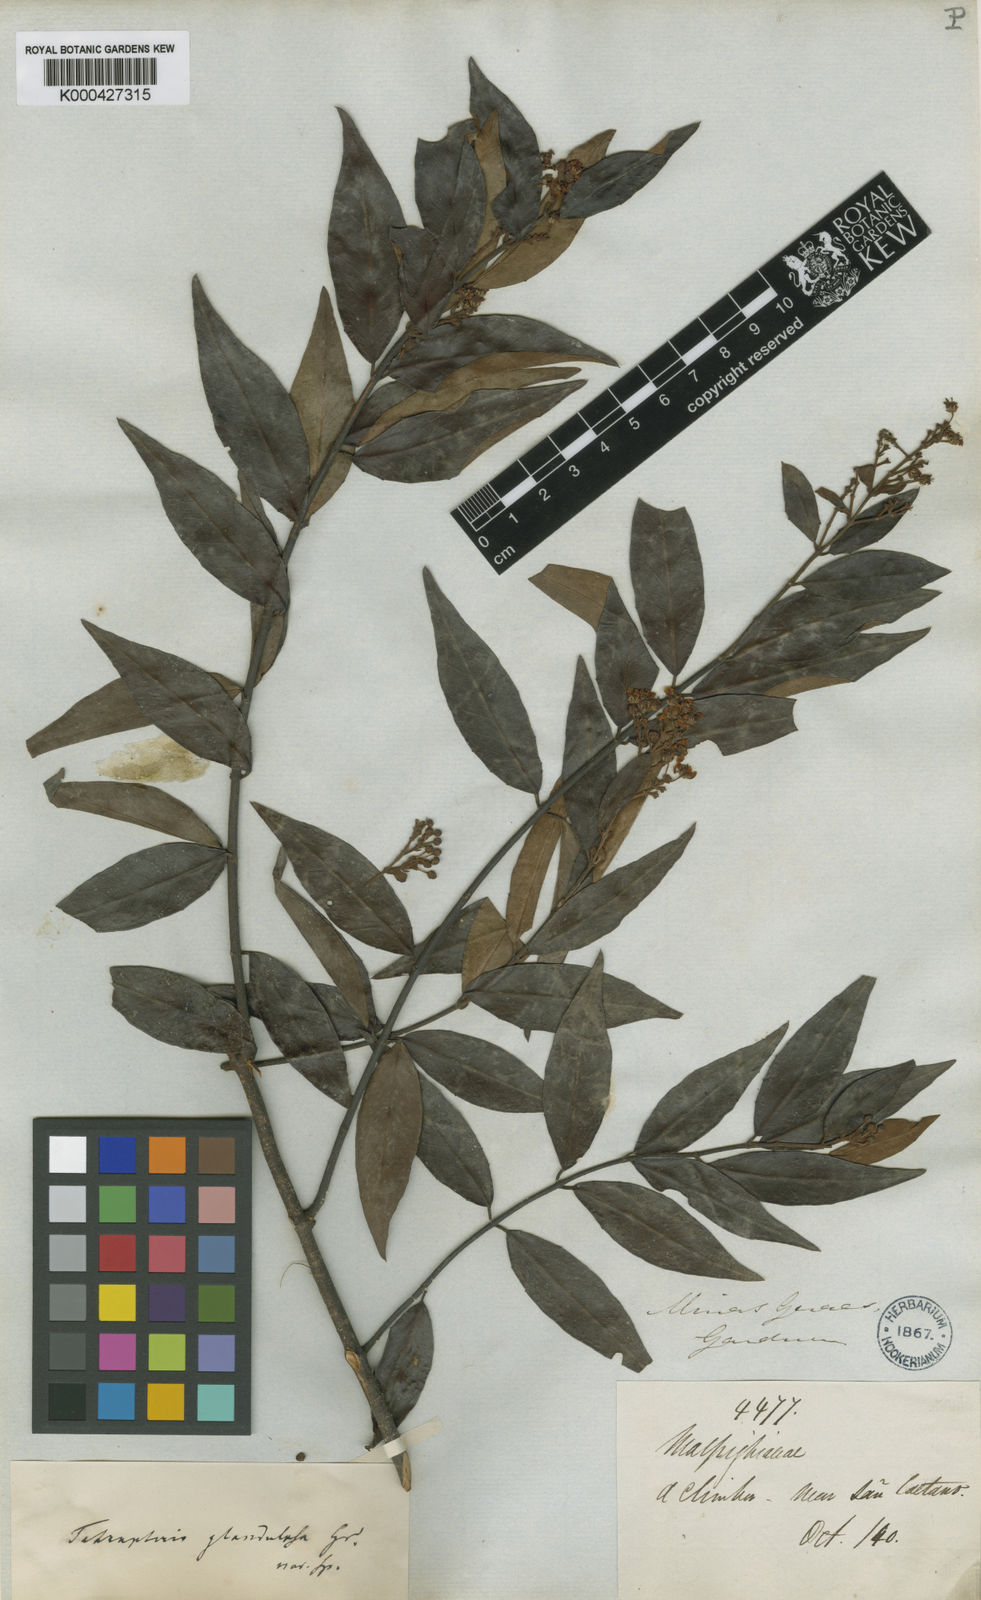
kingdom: Plantae
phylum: Tracheophyta
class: Magnoliopsida
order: Malpighiales
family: Malpighiaceae
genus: Niedenzuella
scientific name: Niedenzuella sericea
